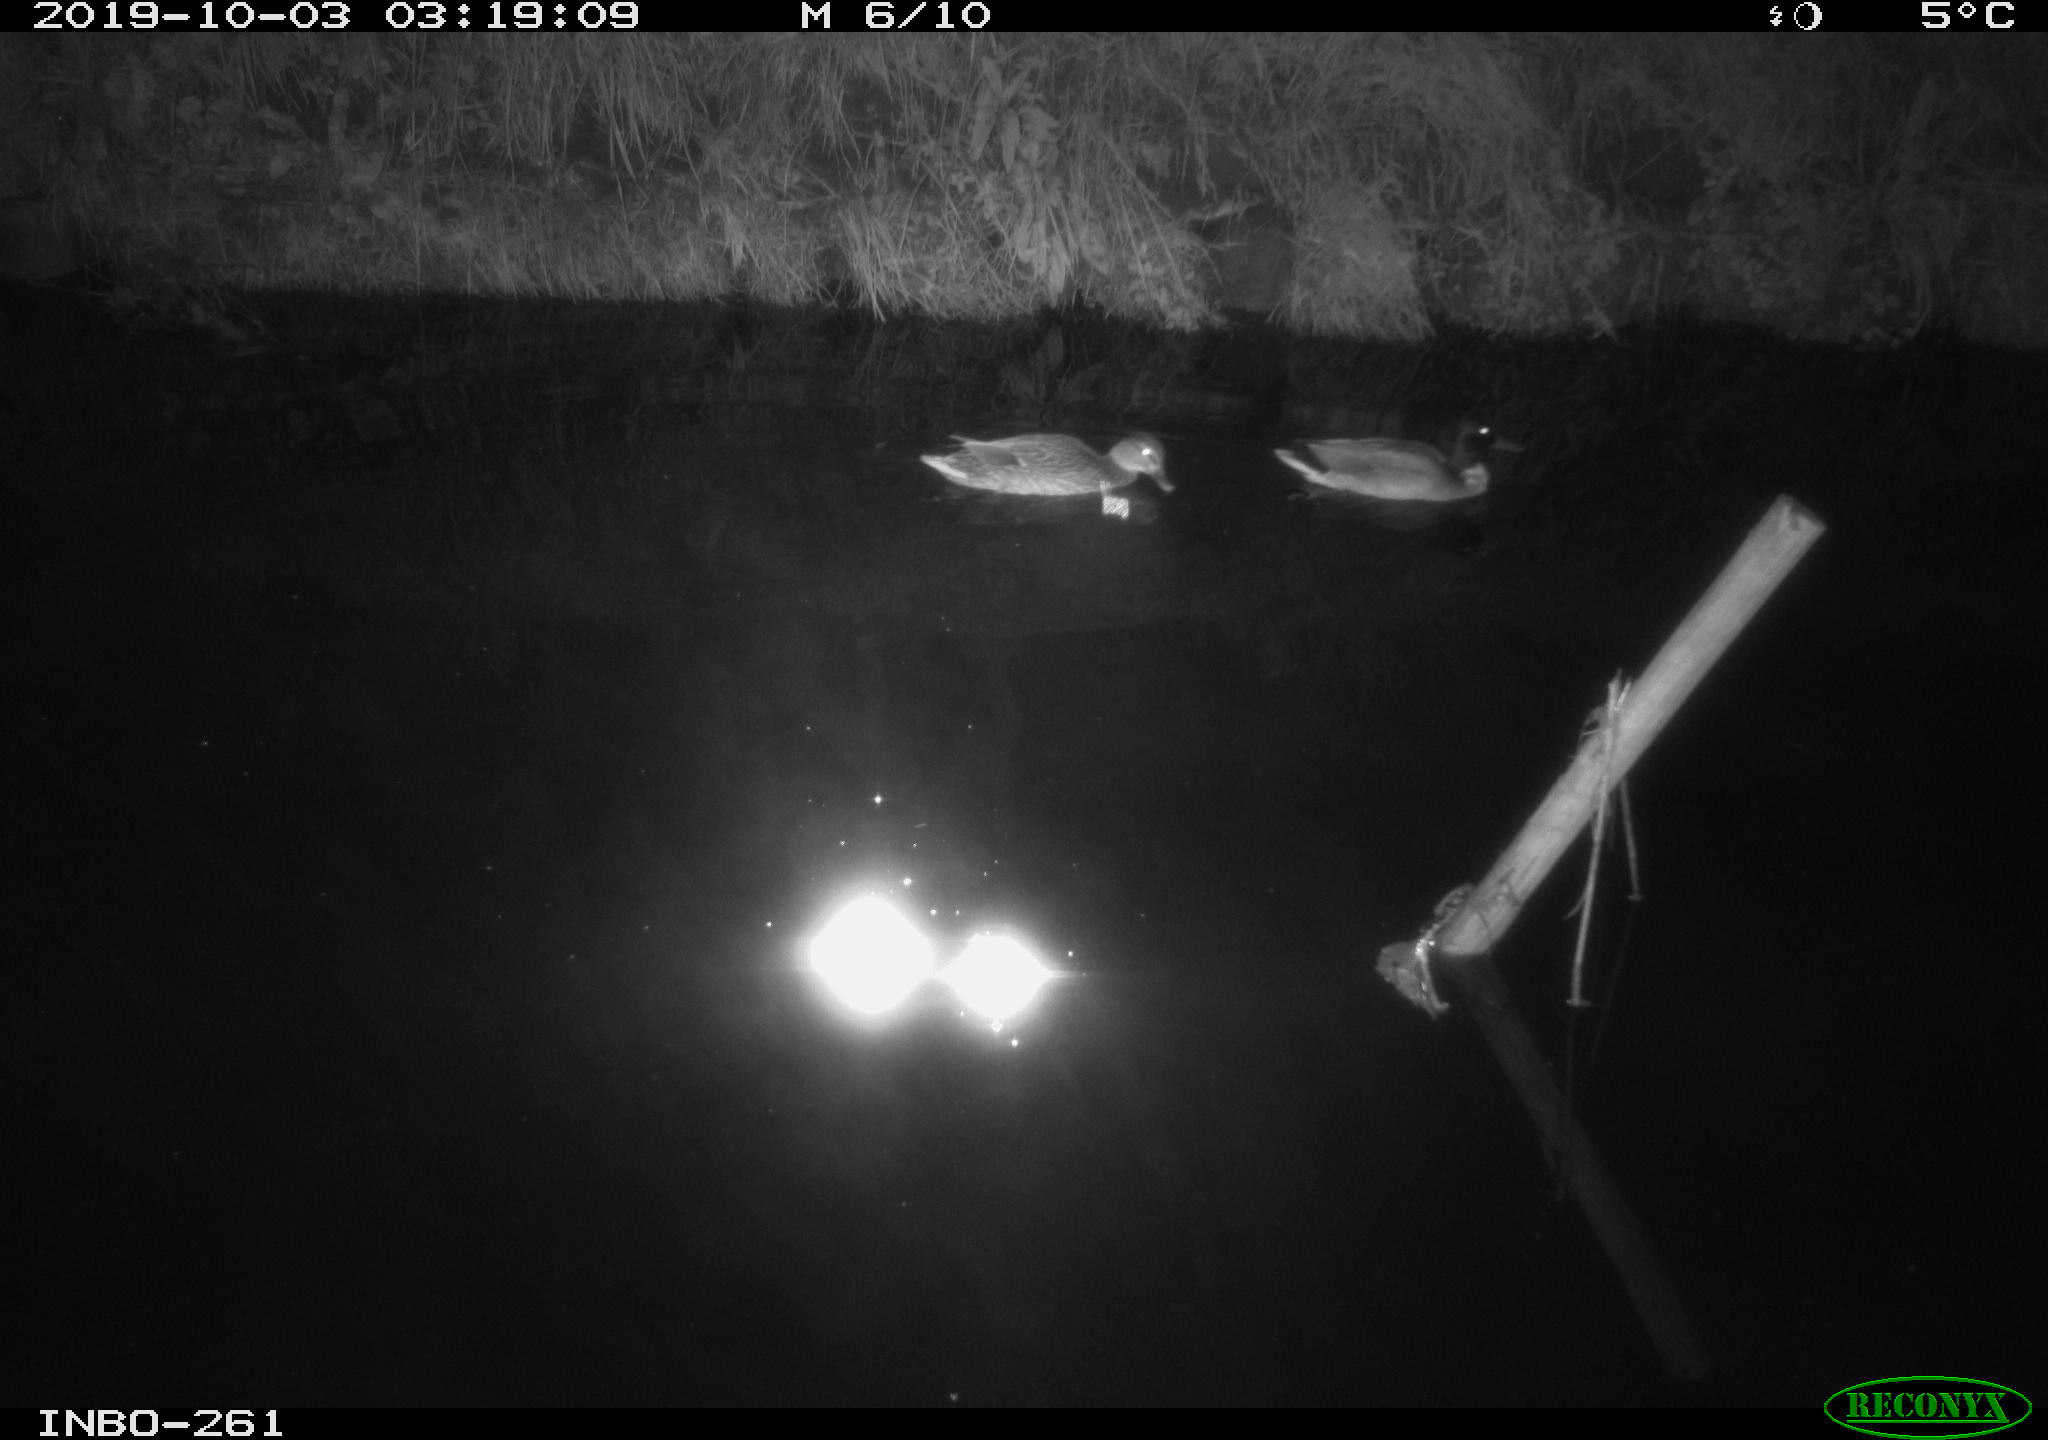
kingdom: Animalia
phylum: Chordata
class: Aves
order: Anseriformes
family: Anatidae
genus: Anas
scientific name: Anas platyrhynchos
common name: Mallard
